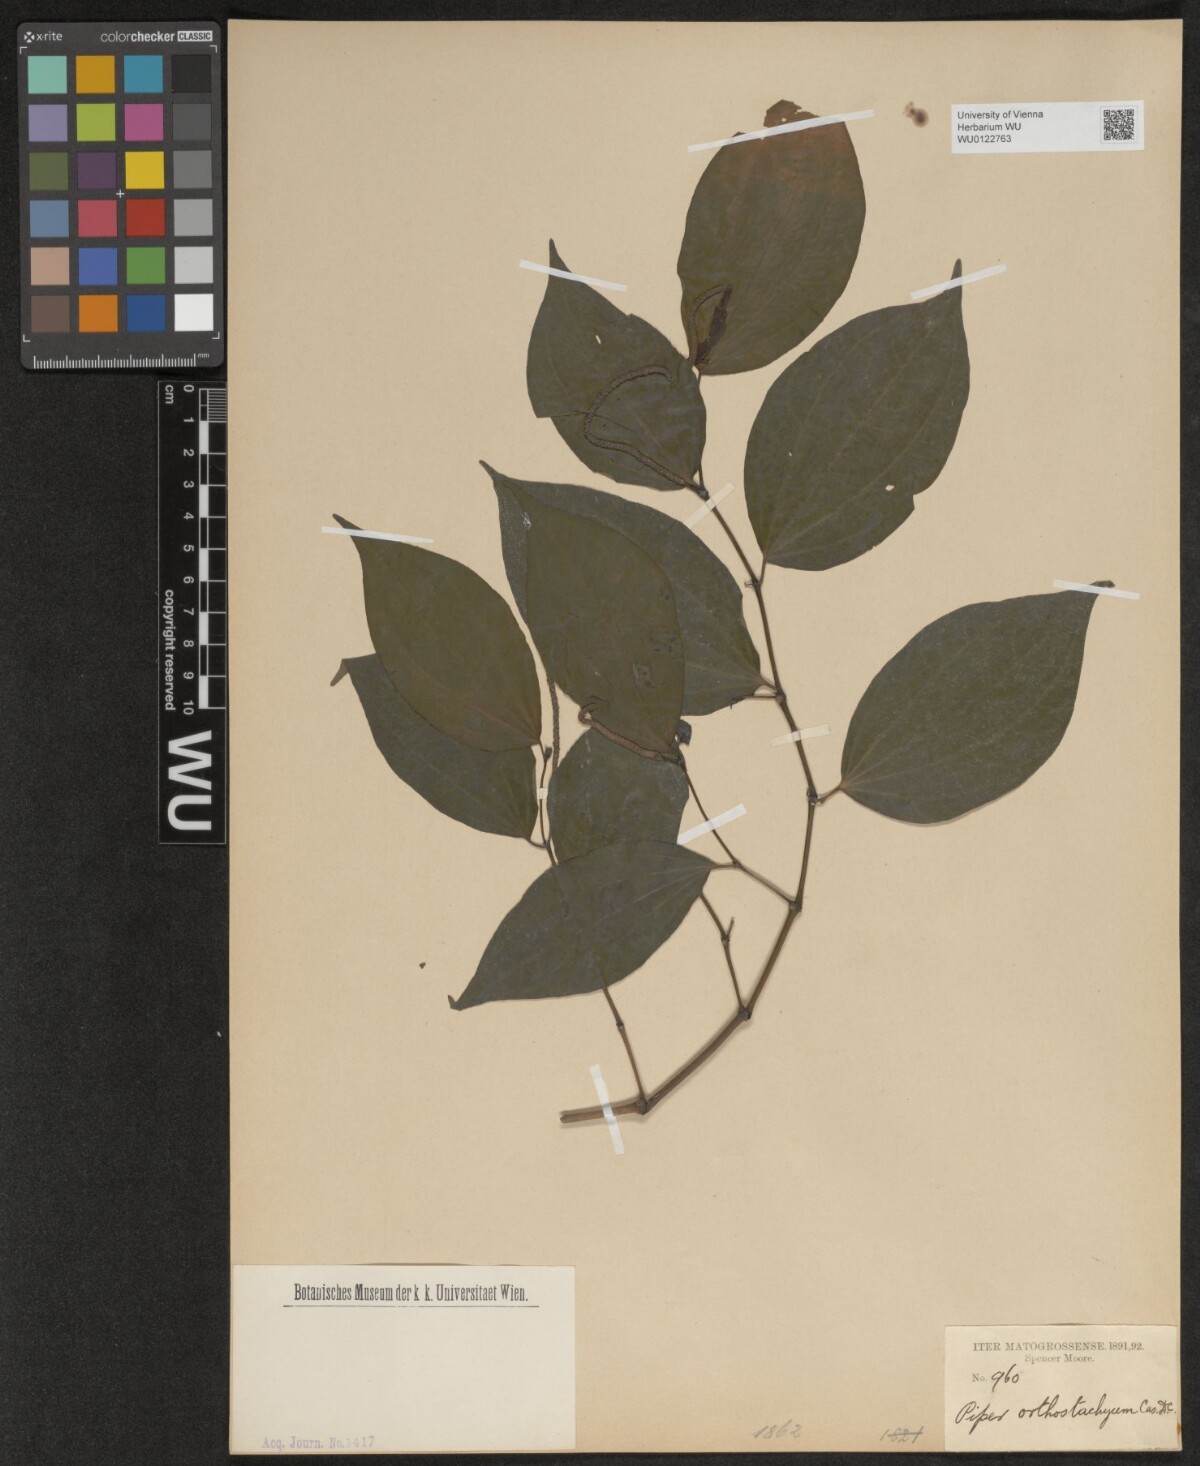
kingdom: Plantae
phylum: Tracheophyta
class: Magnoliopsida
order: Piperales
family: Piperaceae
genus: Piper
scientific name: Piper orthostachyum
